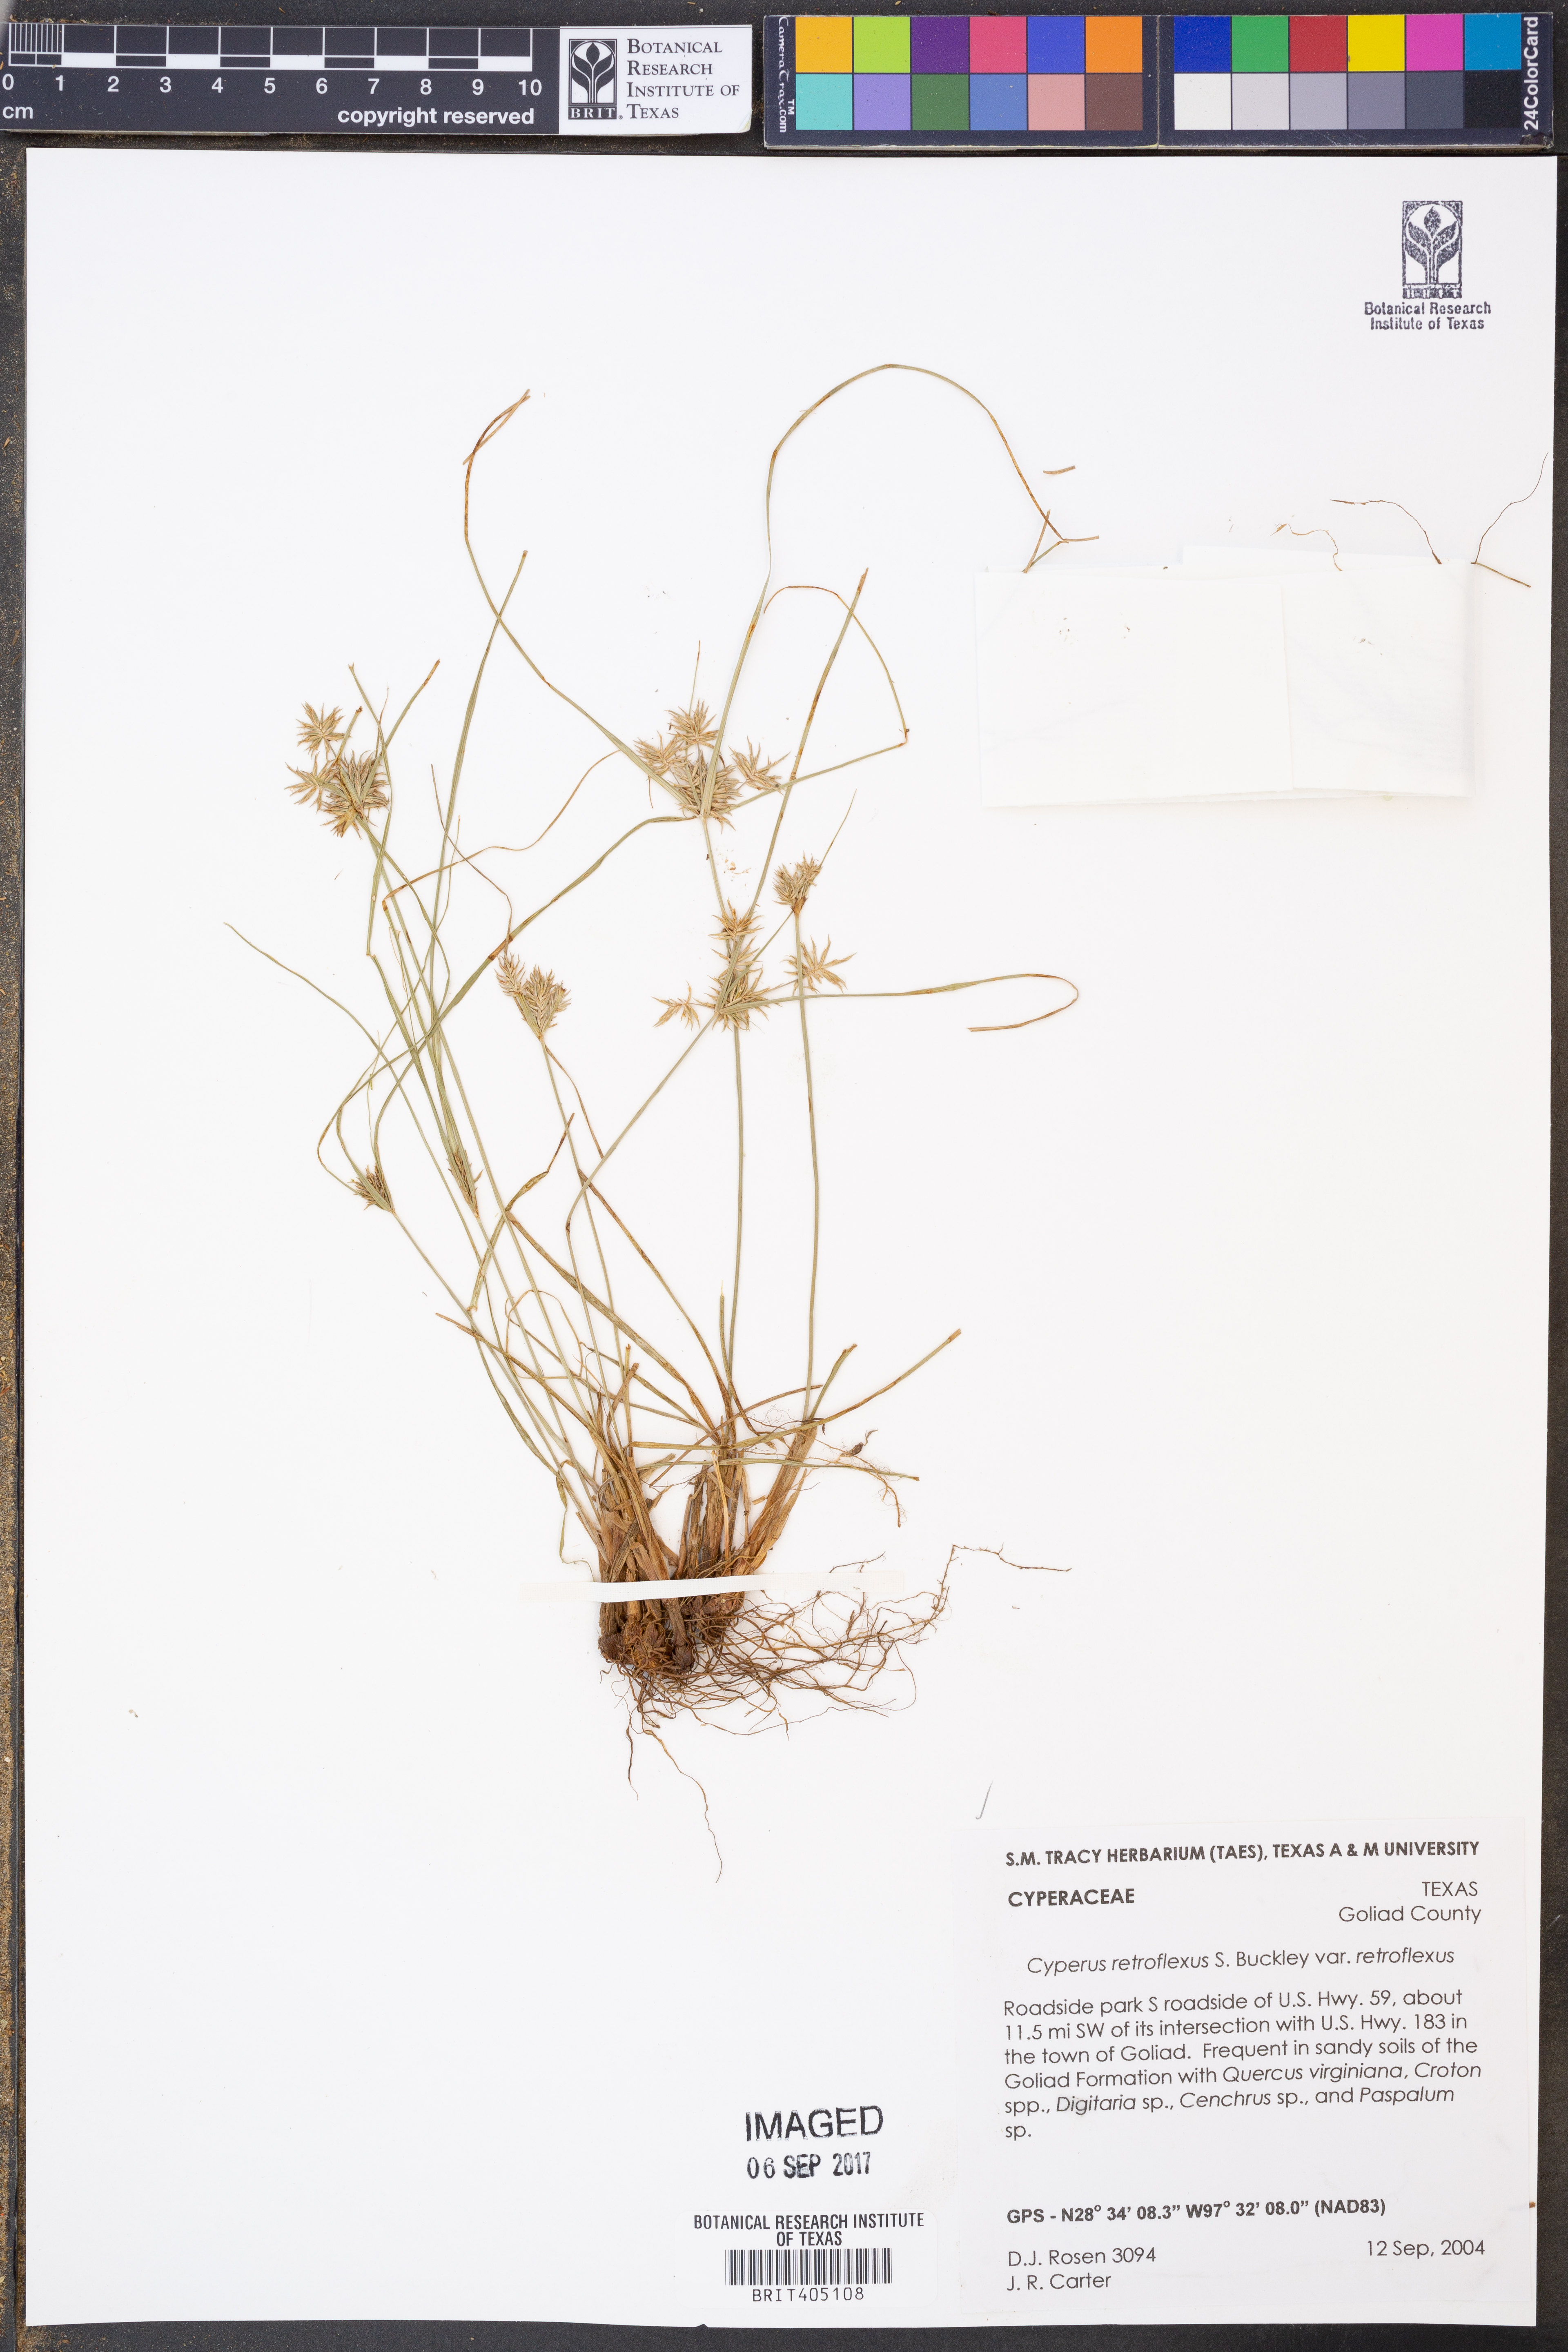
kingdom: Plantae
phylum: Tracheophyta
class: Liliopsida
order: Poales
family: Cyperaceae
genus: Cyperus
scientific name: Cyperus retroflexus
